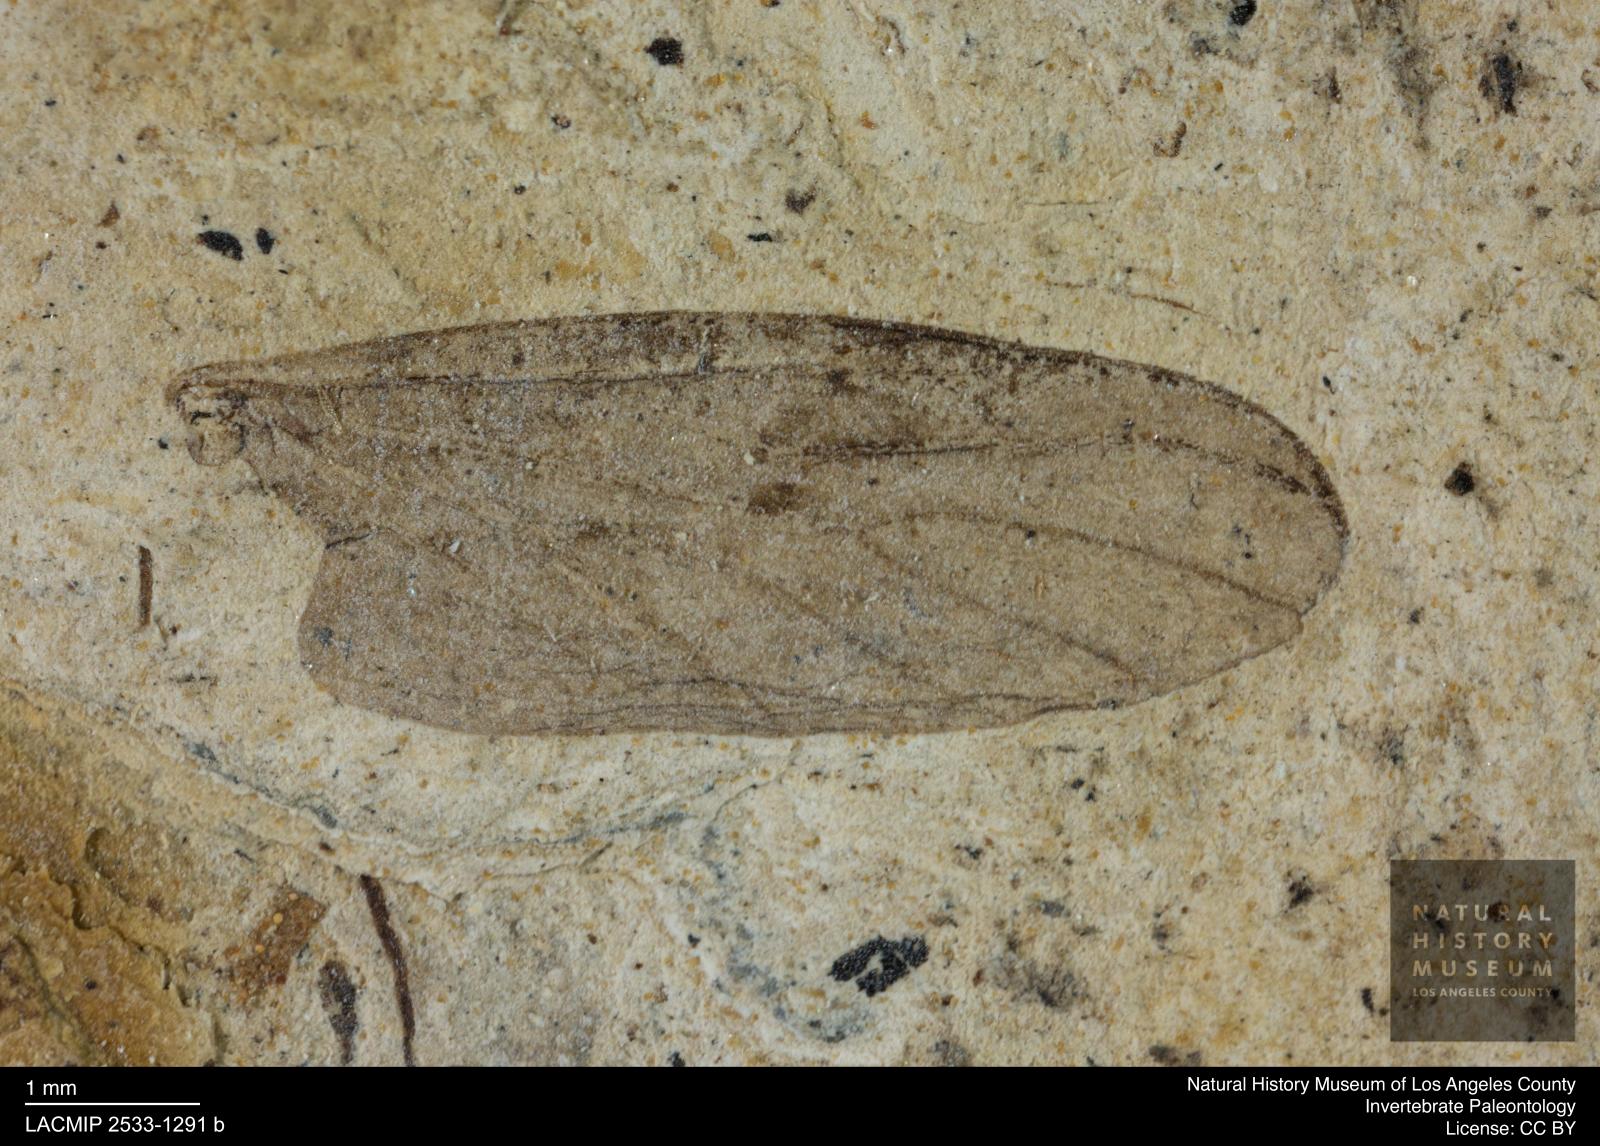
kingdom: Animalia
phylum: Arthropoda
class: Insecta
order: Diptera
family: Bibionidae
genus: Plecia
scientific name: Plecia hypogaea
